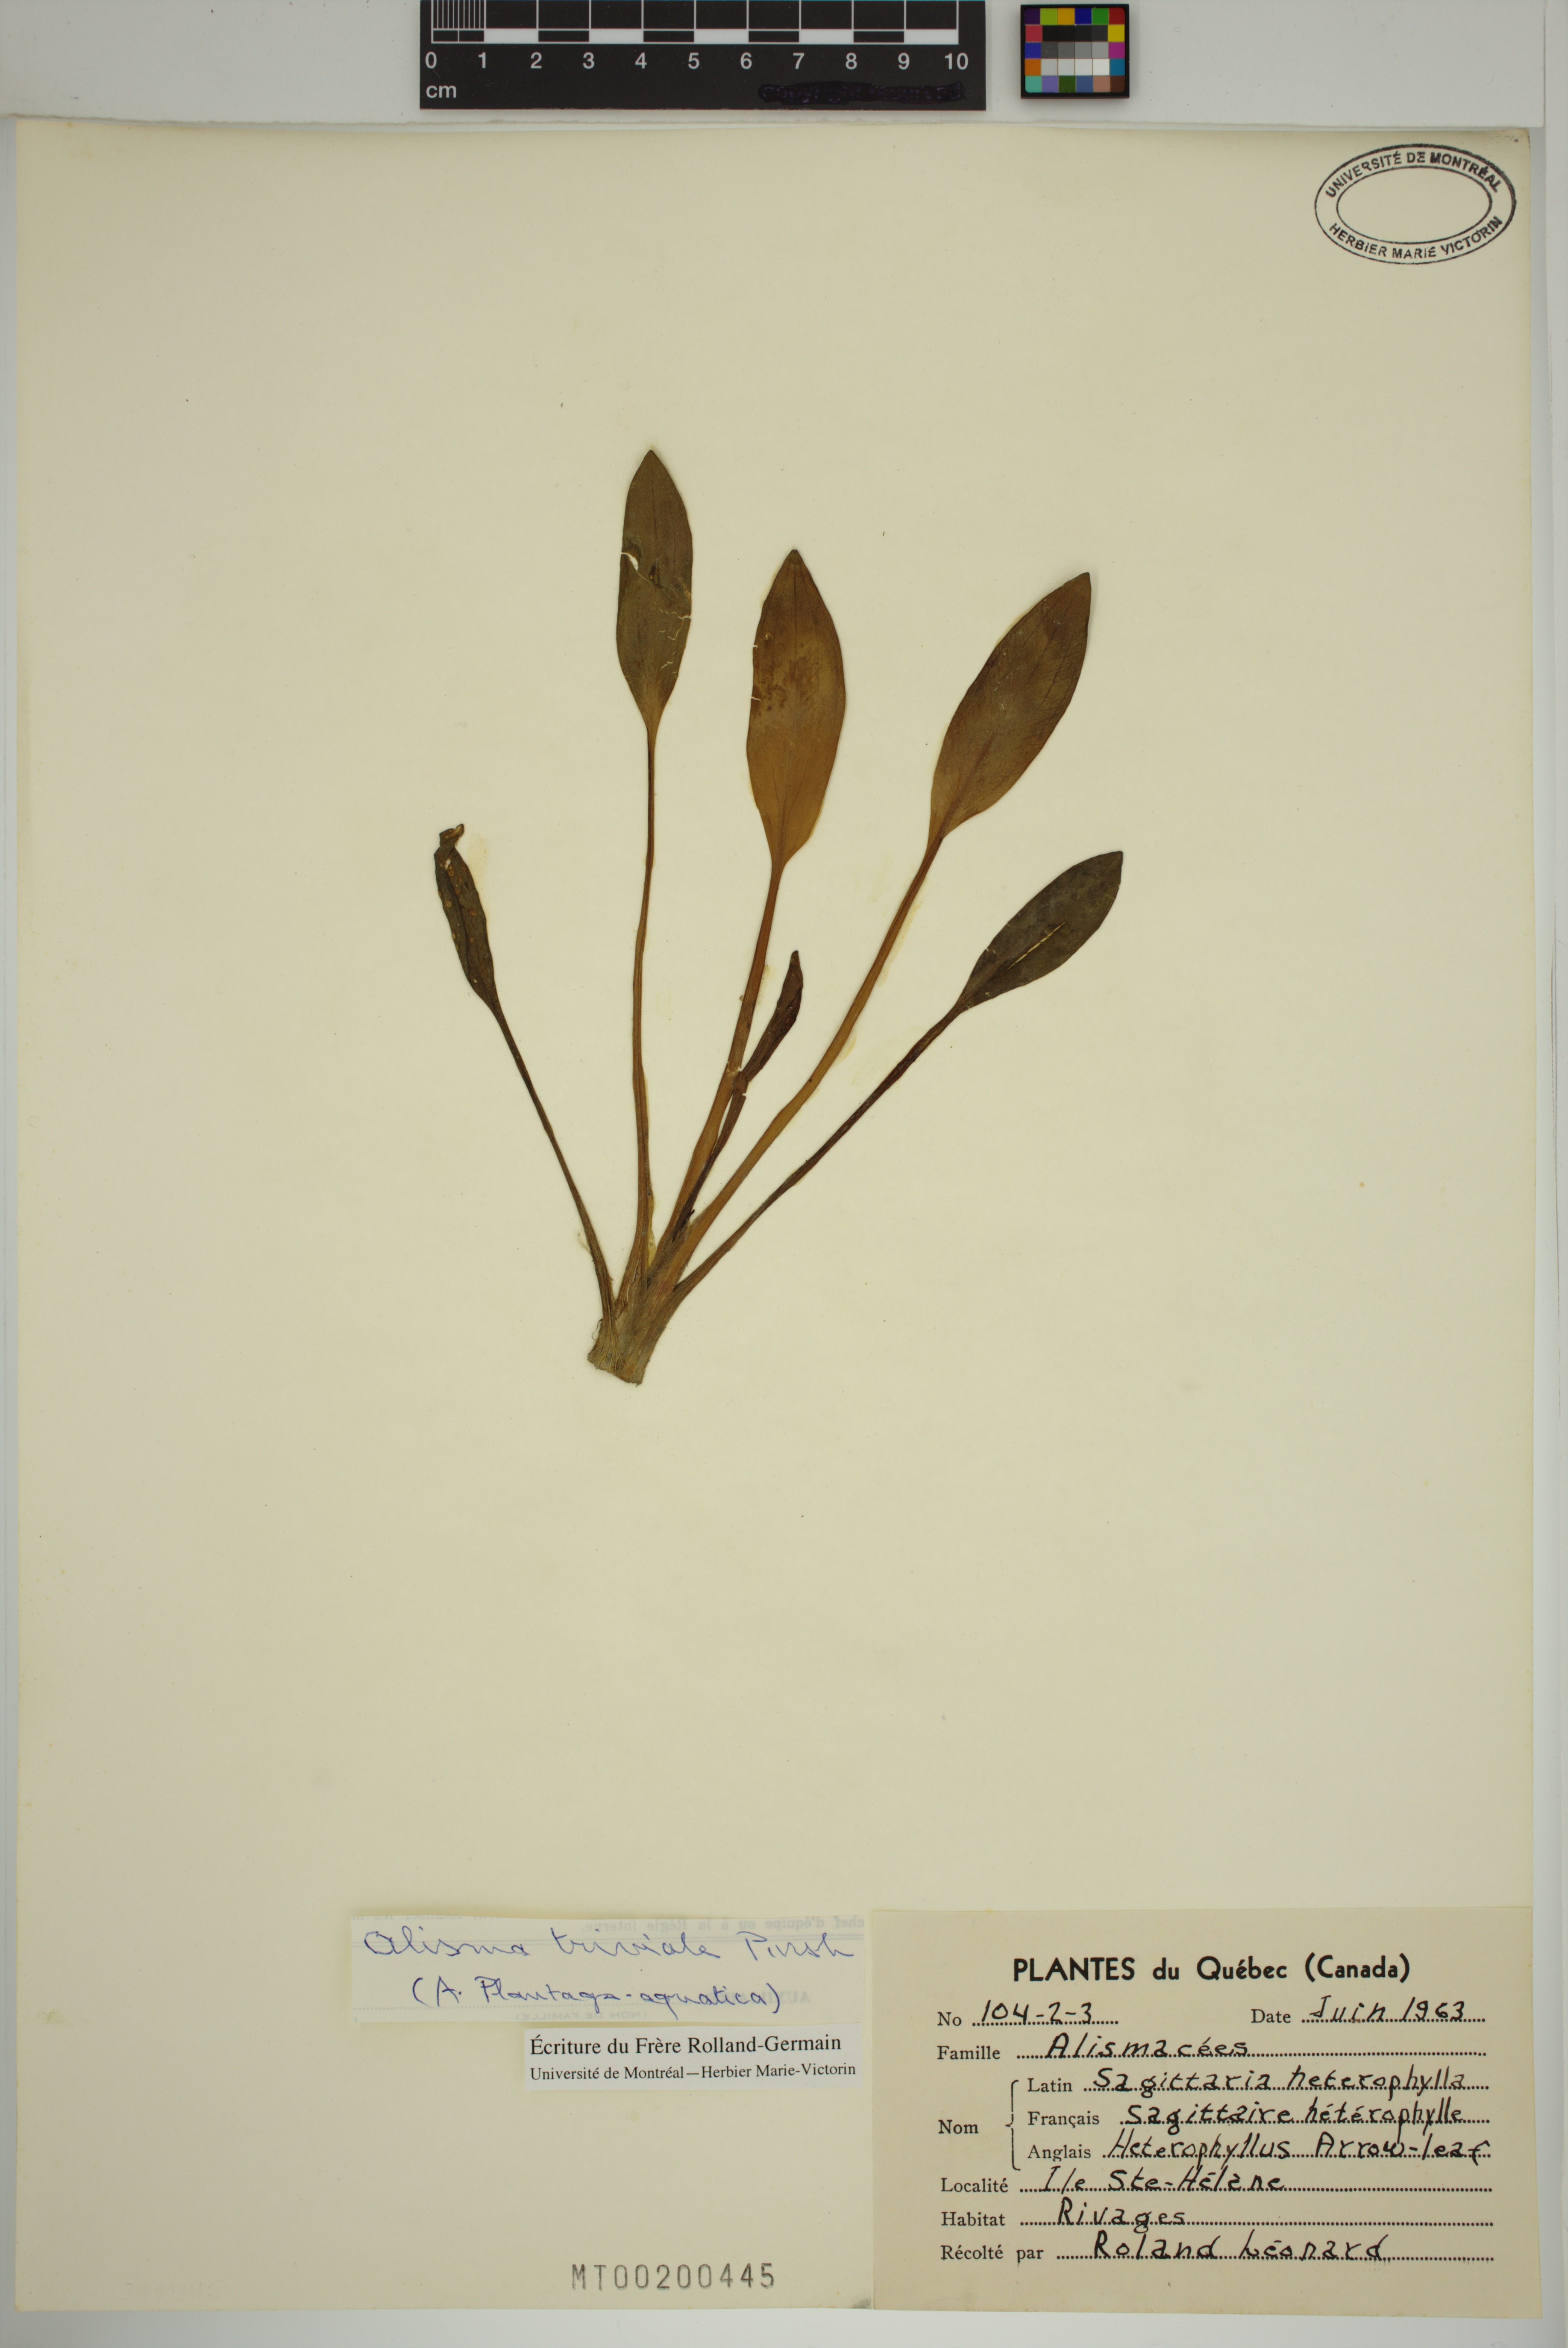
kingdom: Plantae
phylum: Tracheophyta
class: Liliopsida
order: Alismatales
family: Alismataceae
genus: Alisma
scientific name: Alisma triviale
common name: Northern water-plantain
